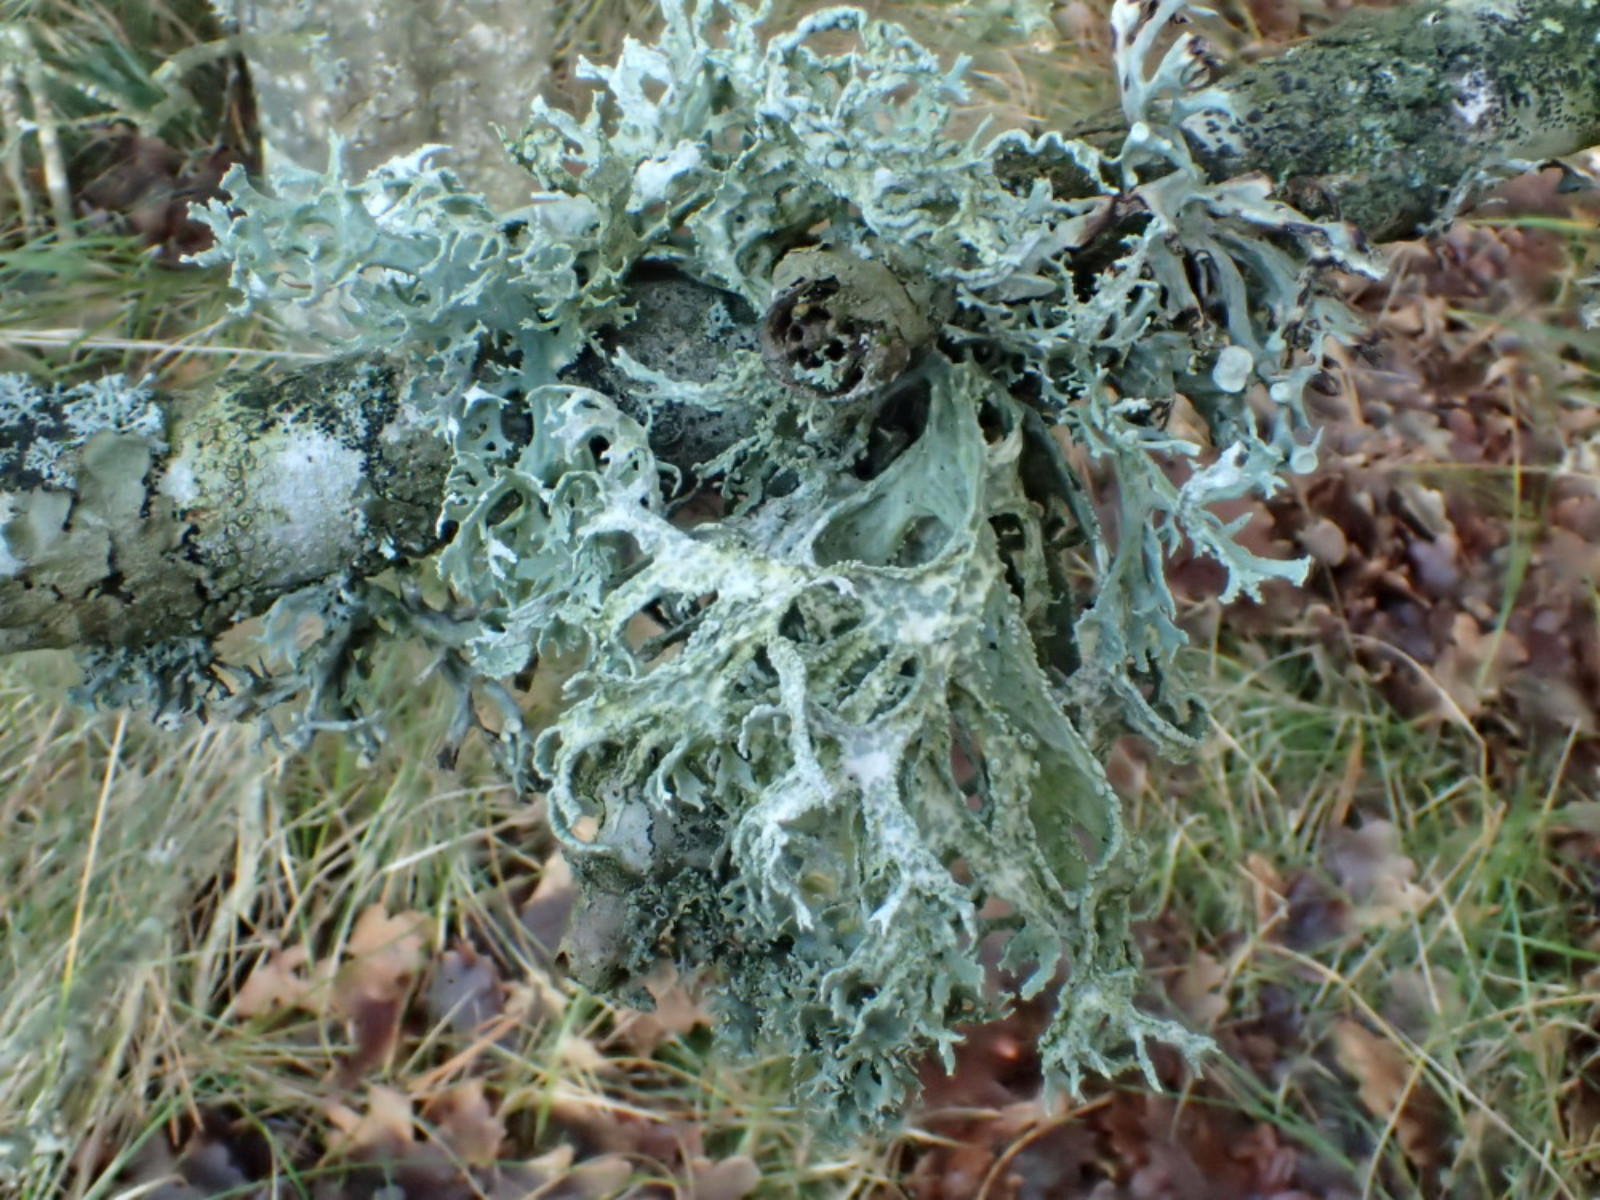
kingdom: Fungi
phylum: Ascomycota
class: Lecanoromycetes
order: Lecanorales
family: Parmeliaceae
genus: Evernia
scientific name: Evernia prunastri
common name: almindelig slåenlav
